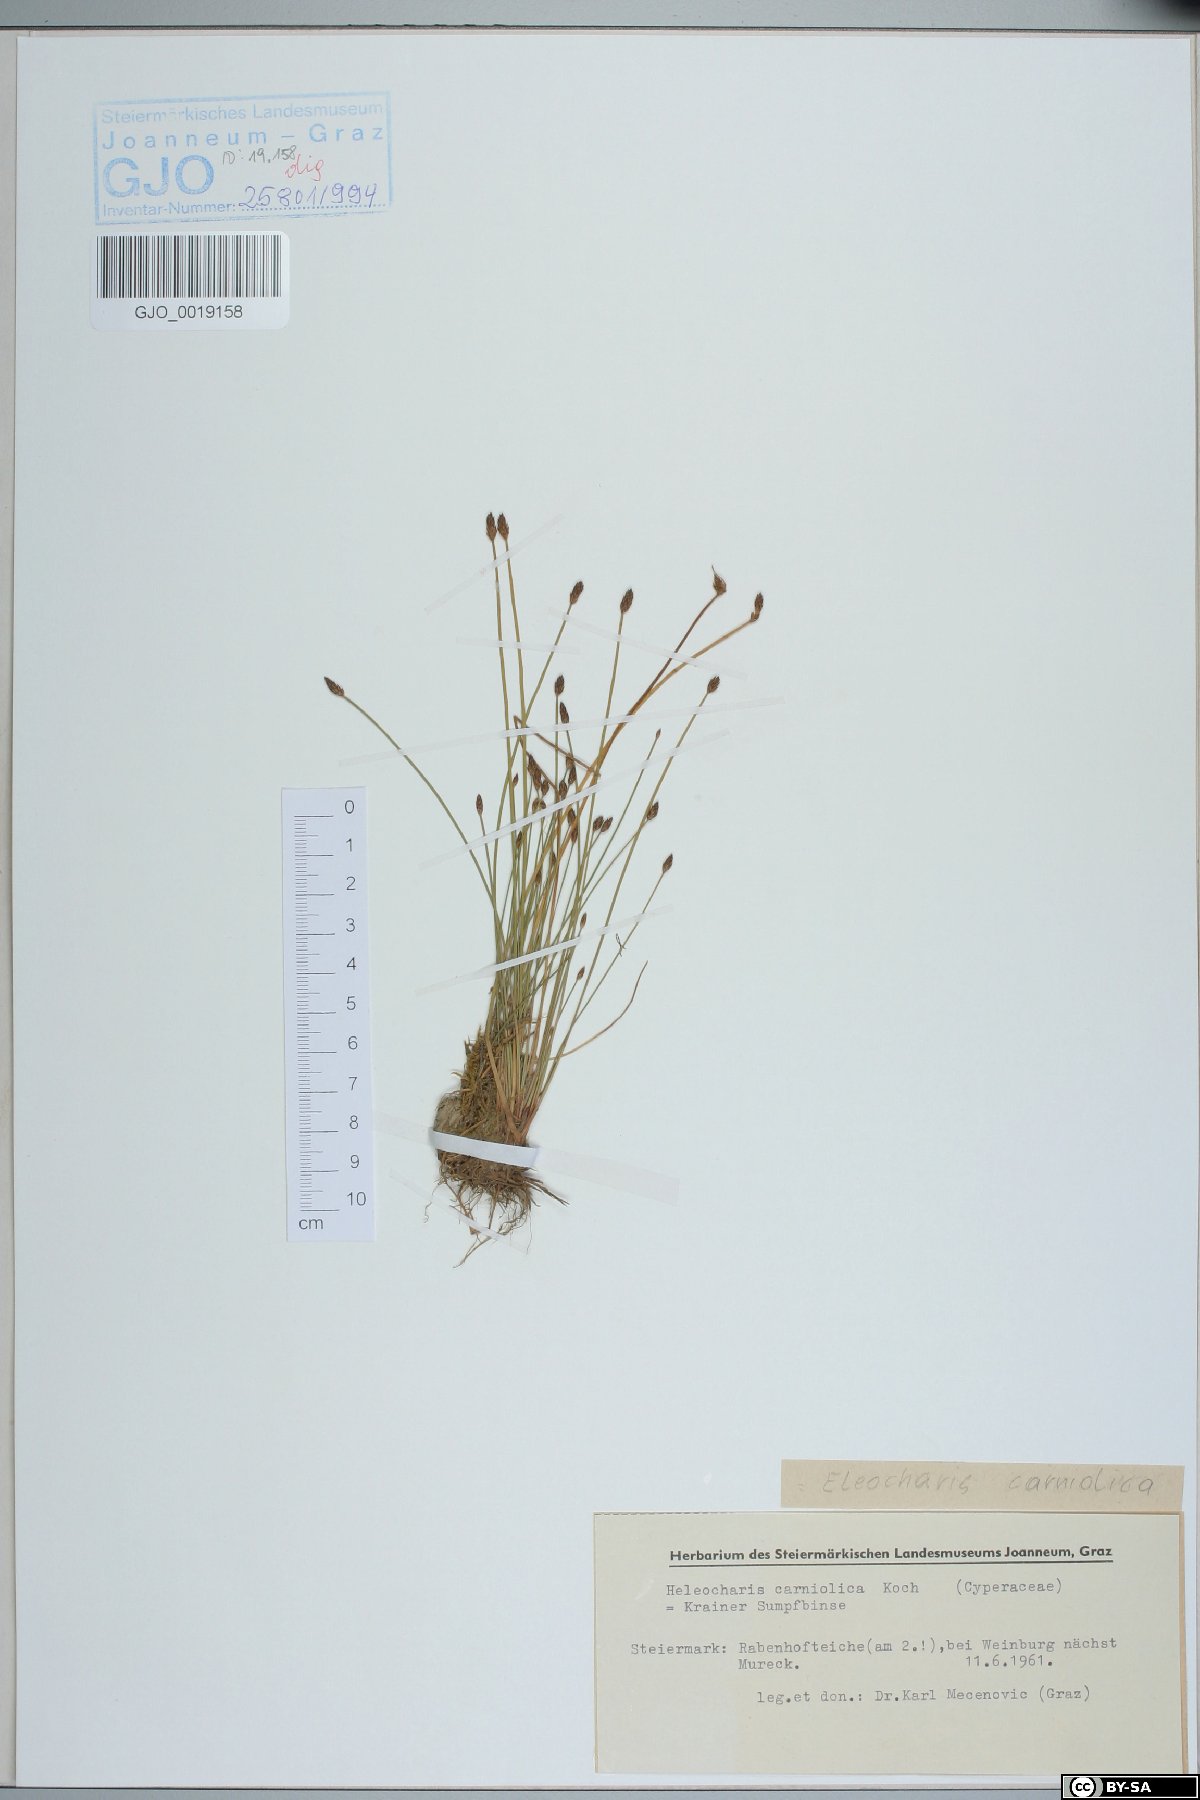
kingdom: Plantae
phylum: Tracheophyta
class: Liliopsida
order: Poales
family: Cyperaceae
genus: Eleocharis
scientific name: Eleocharis carniolica
